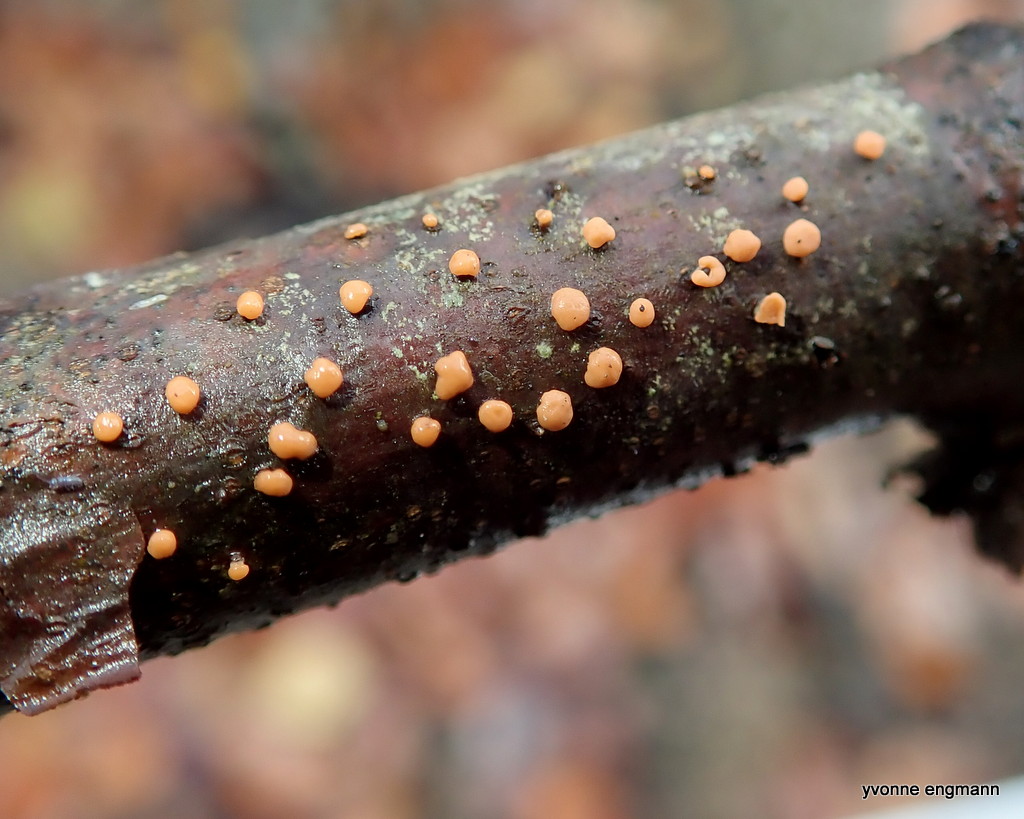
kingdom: Fungi
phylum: Ascomycota
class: Sordariomycetes
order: Hypocreales
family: Nectriaceae
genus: Nectria
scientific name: Nectria cinnabarina
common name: almindelig cinnobersvamp
